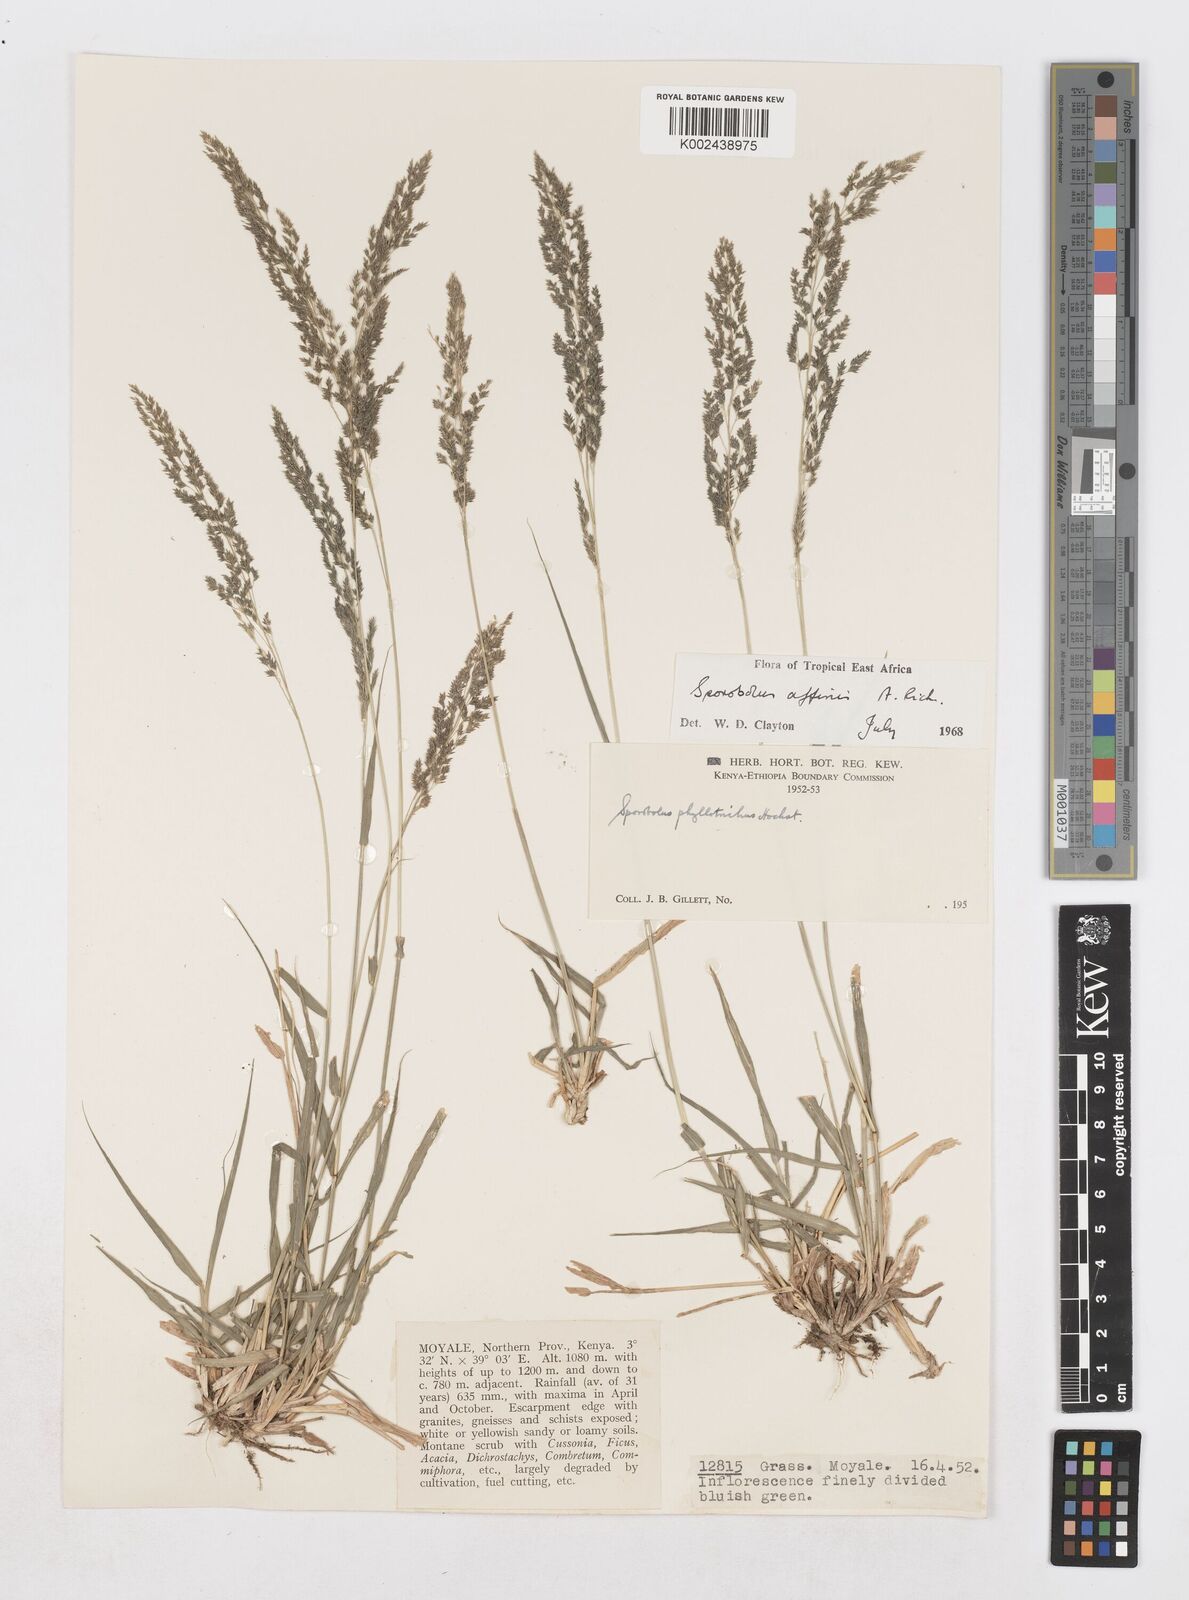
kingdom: Plantae
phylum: Tracheophyta
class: Liliopsida
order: Poales
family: Poaceae
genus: Sporobolus
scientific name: Sporobolus confinis
